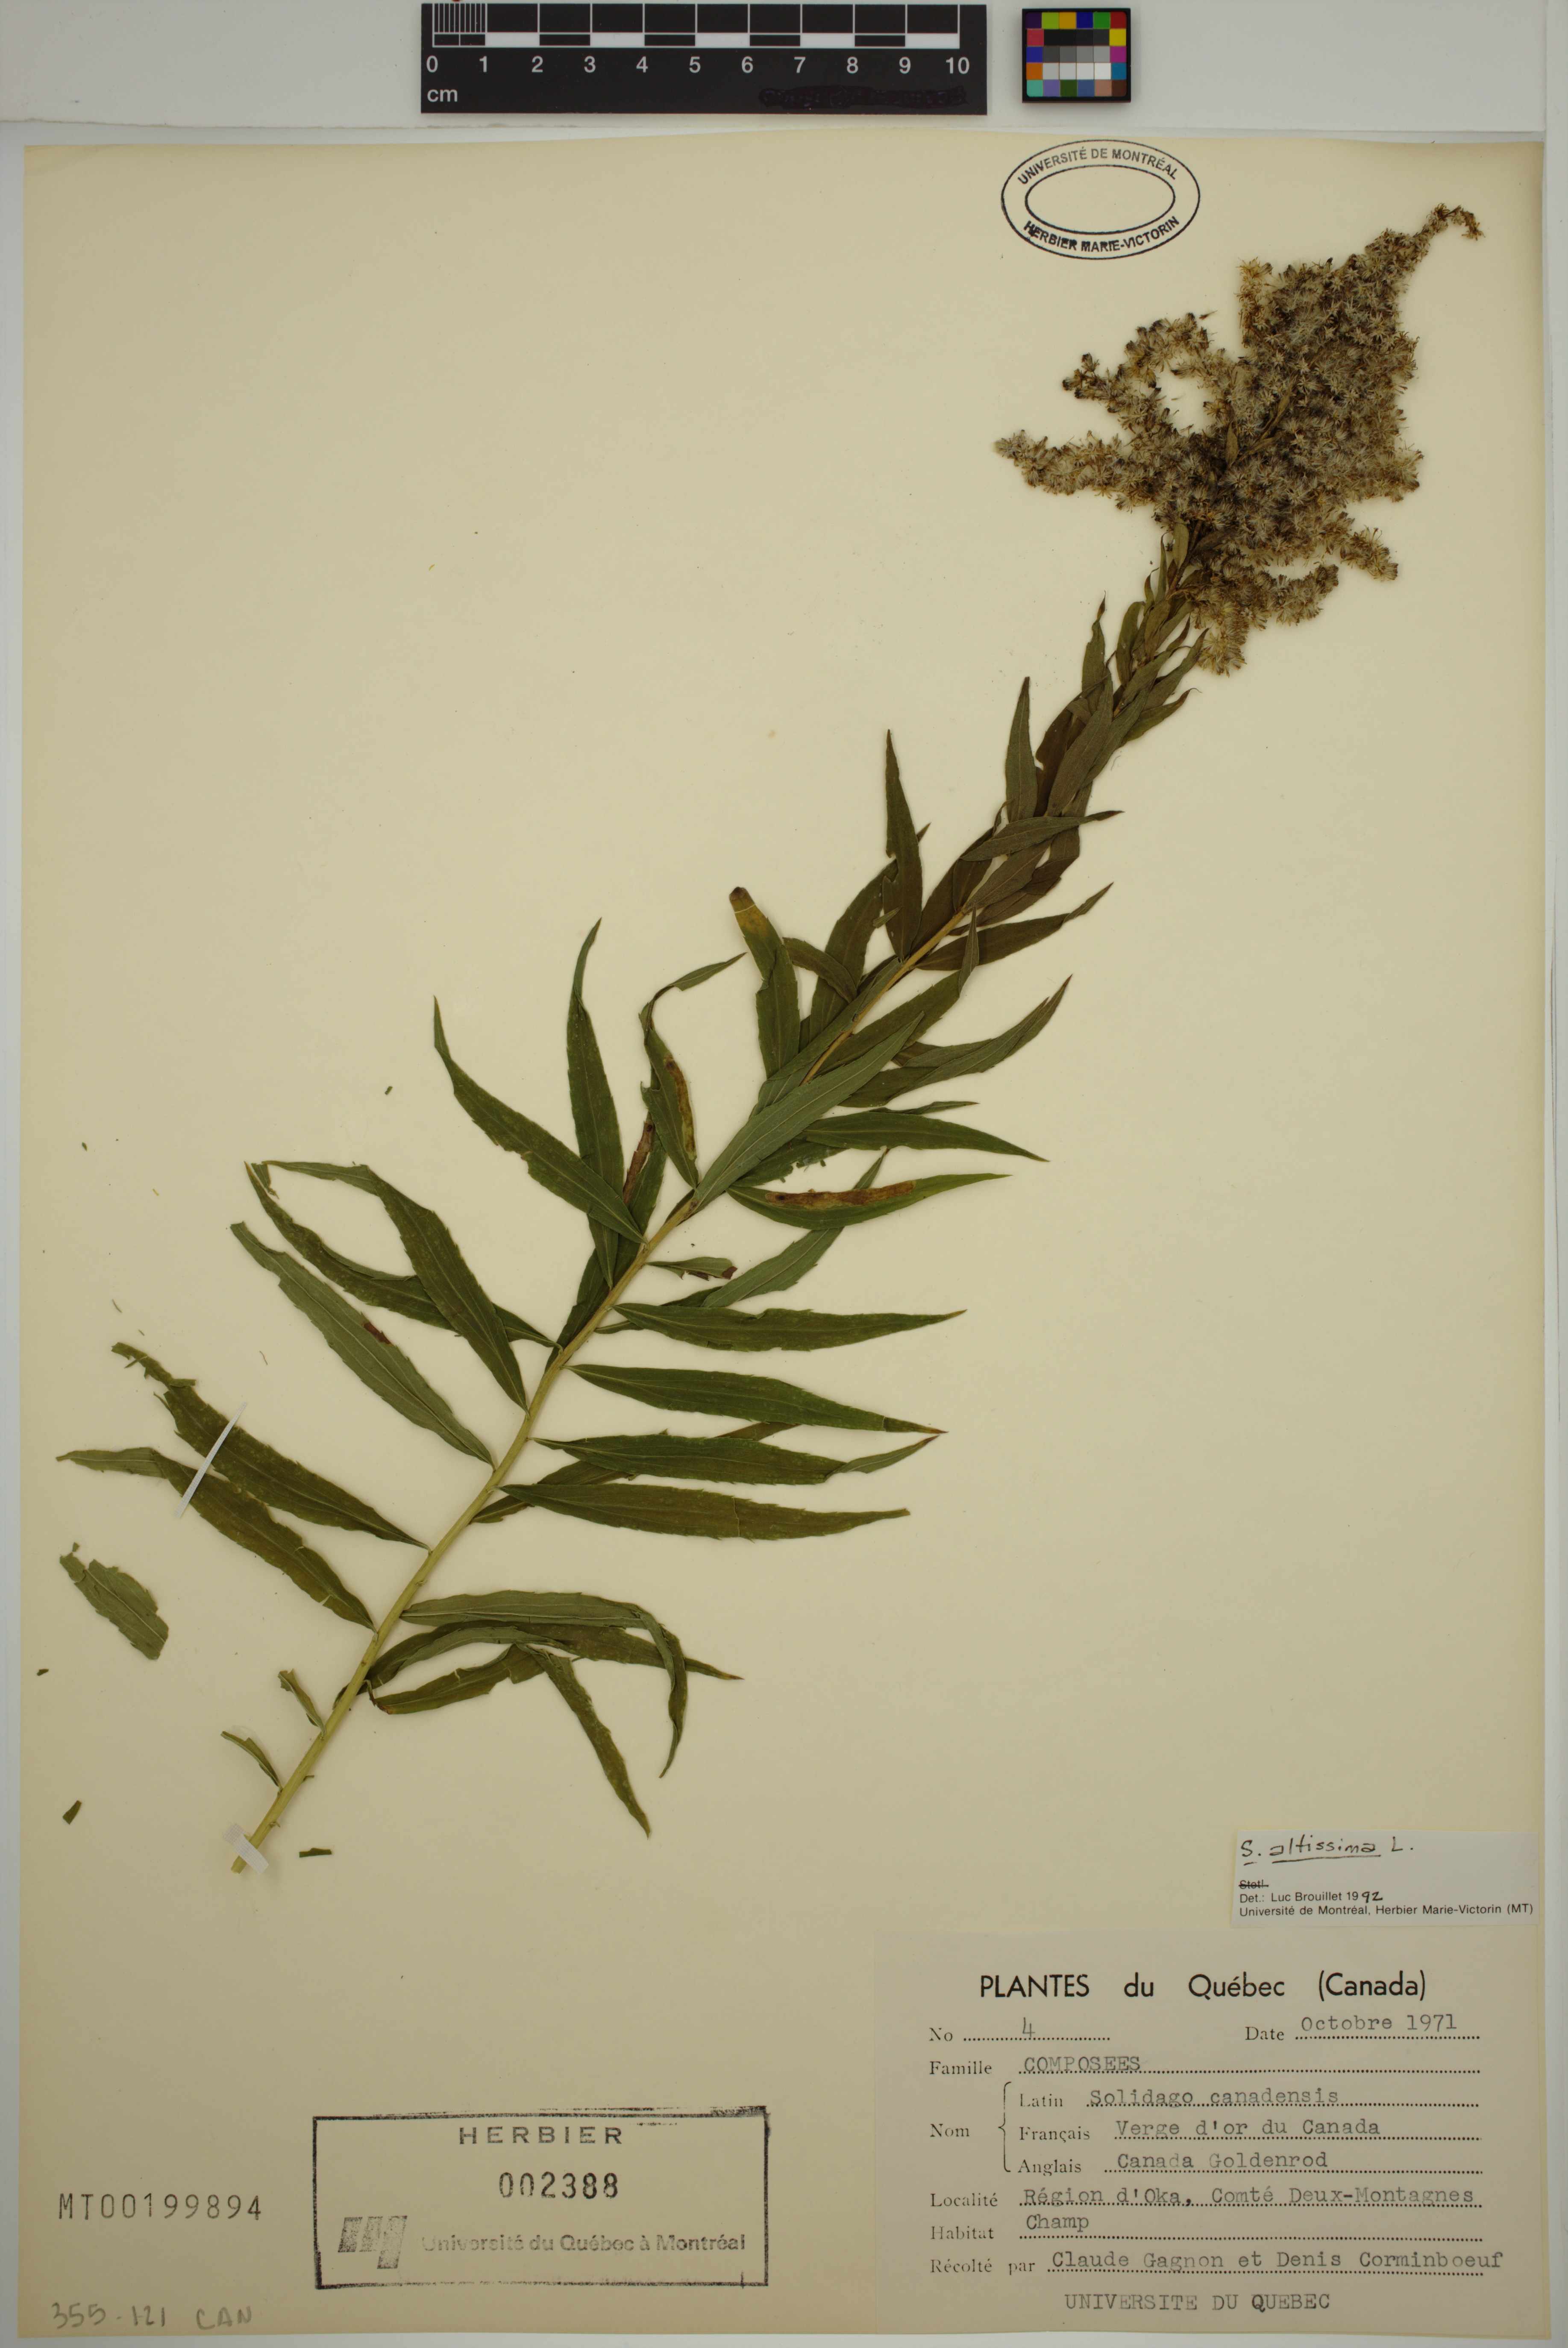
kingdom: Plantae
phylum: Tracheophyta
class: Magnoliopsida
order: Asterales
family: Asteraceae
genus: Solidago
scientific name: Solidago altissima
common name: Late goldenrod
